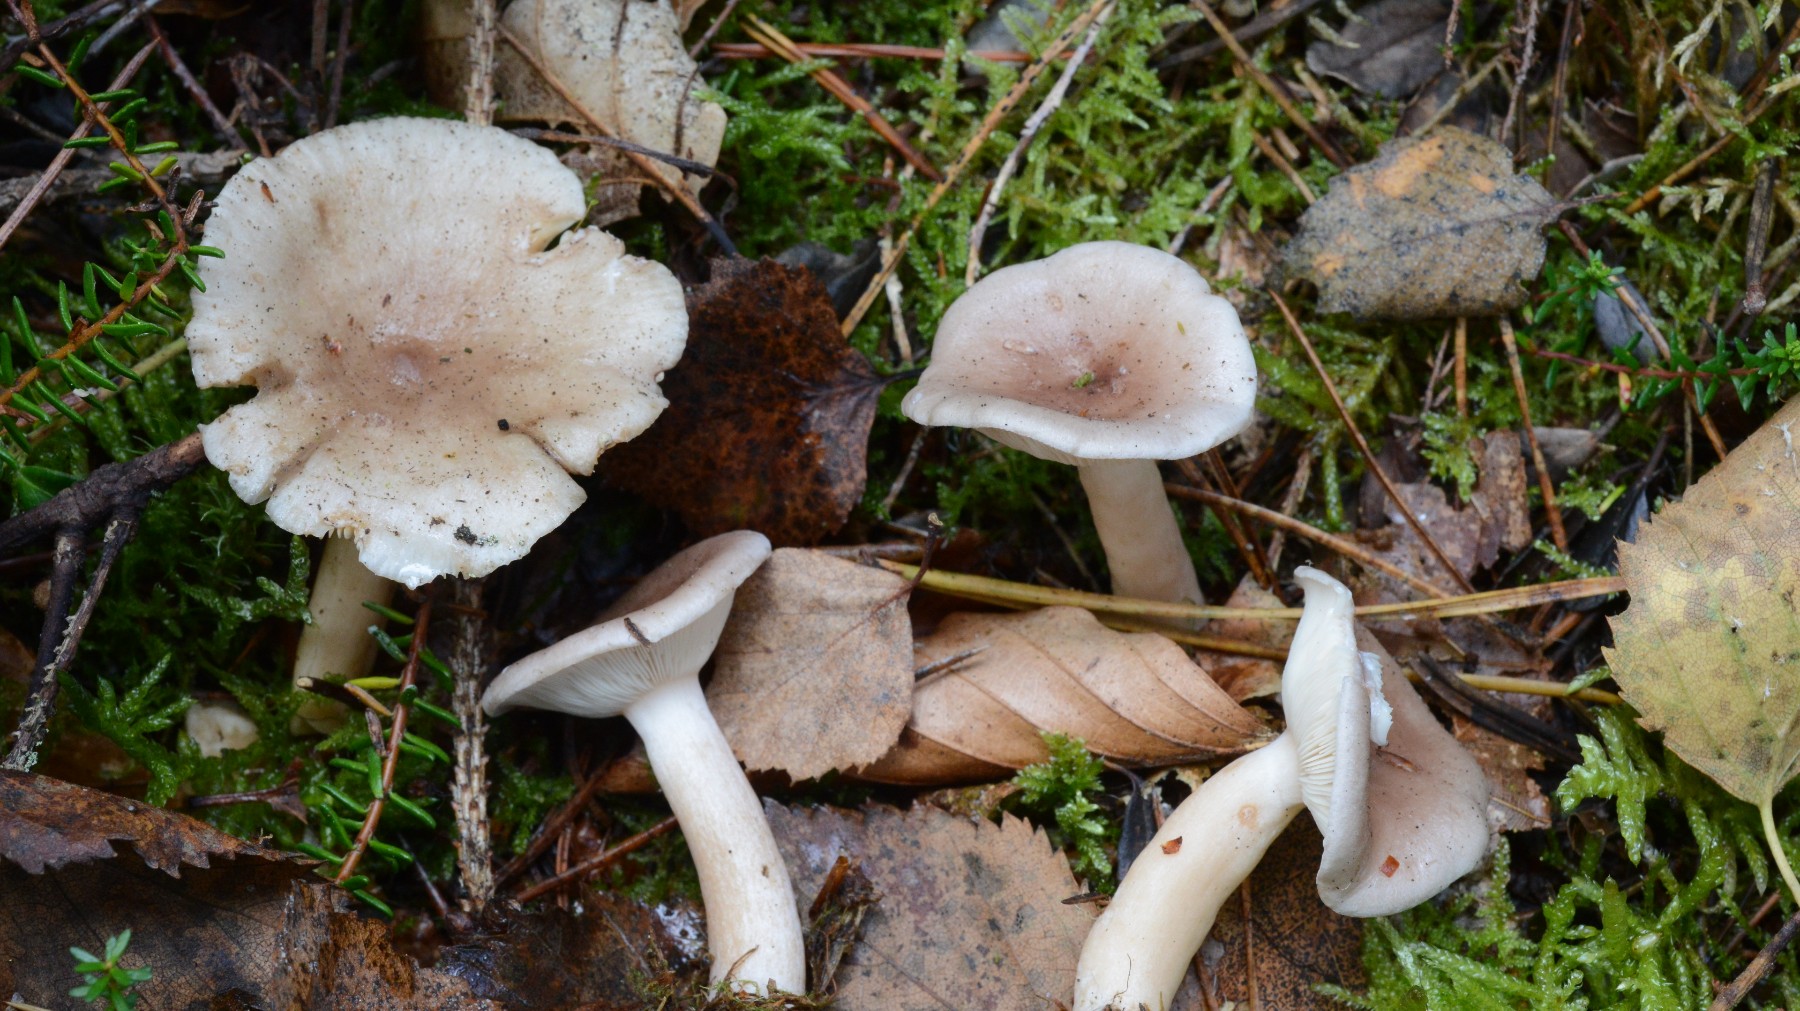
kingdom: Fungi
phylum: Basidiomycota
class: Agaricomycetes
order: Russulales
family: Russulaceae
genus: Lactarius
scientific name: Lactarius vietus
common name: violetgrå mælkehat
